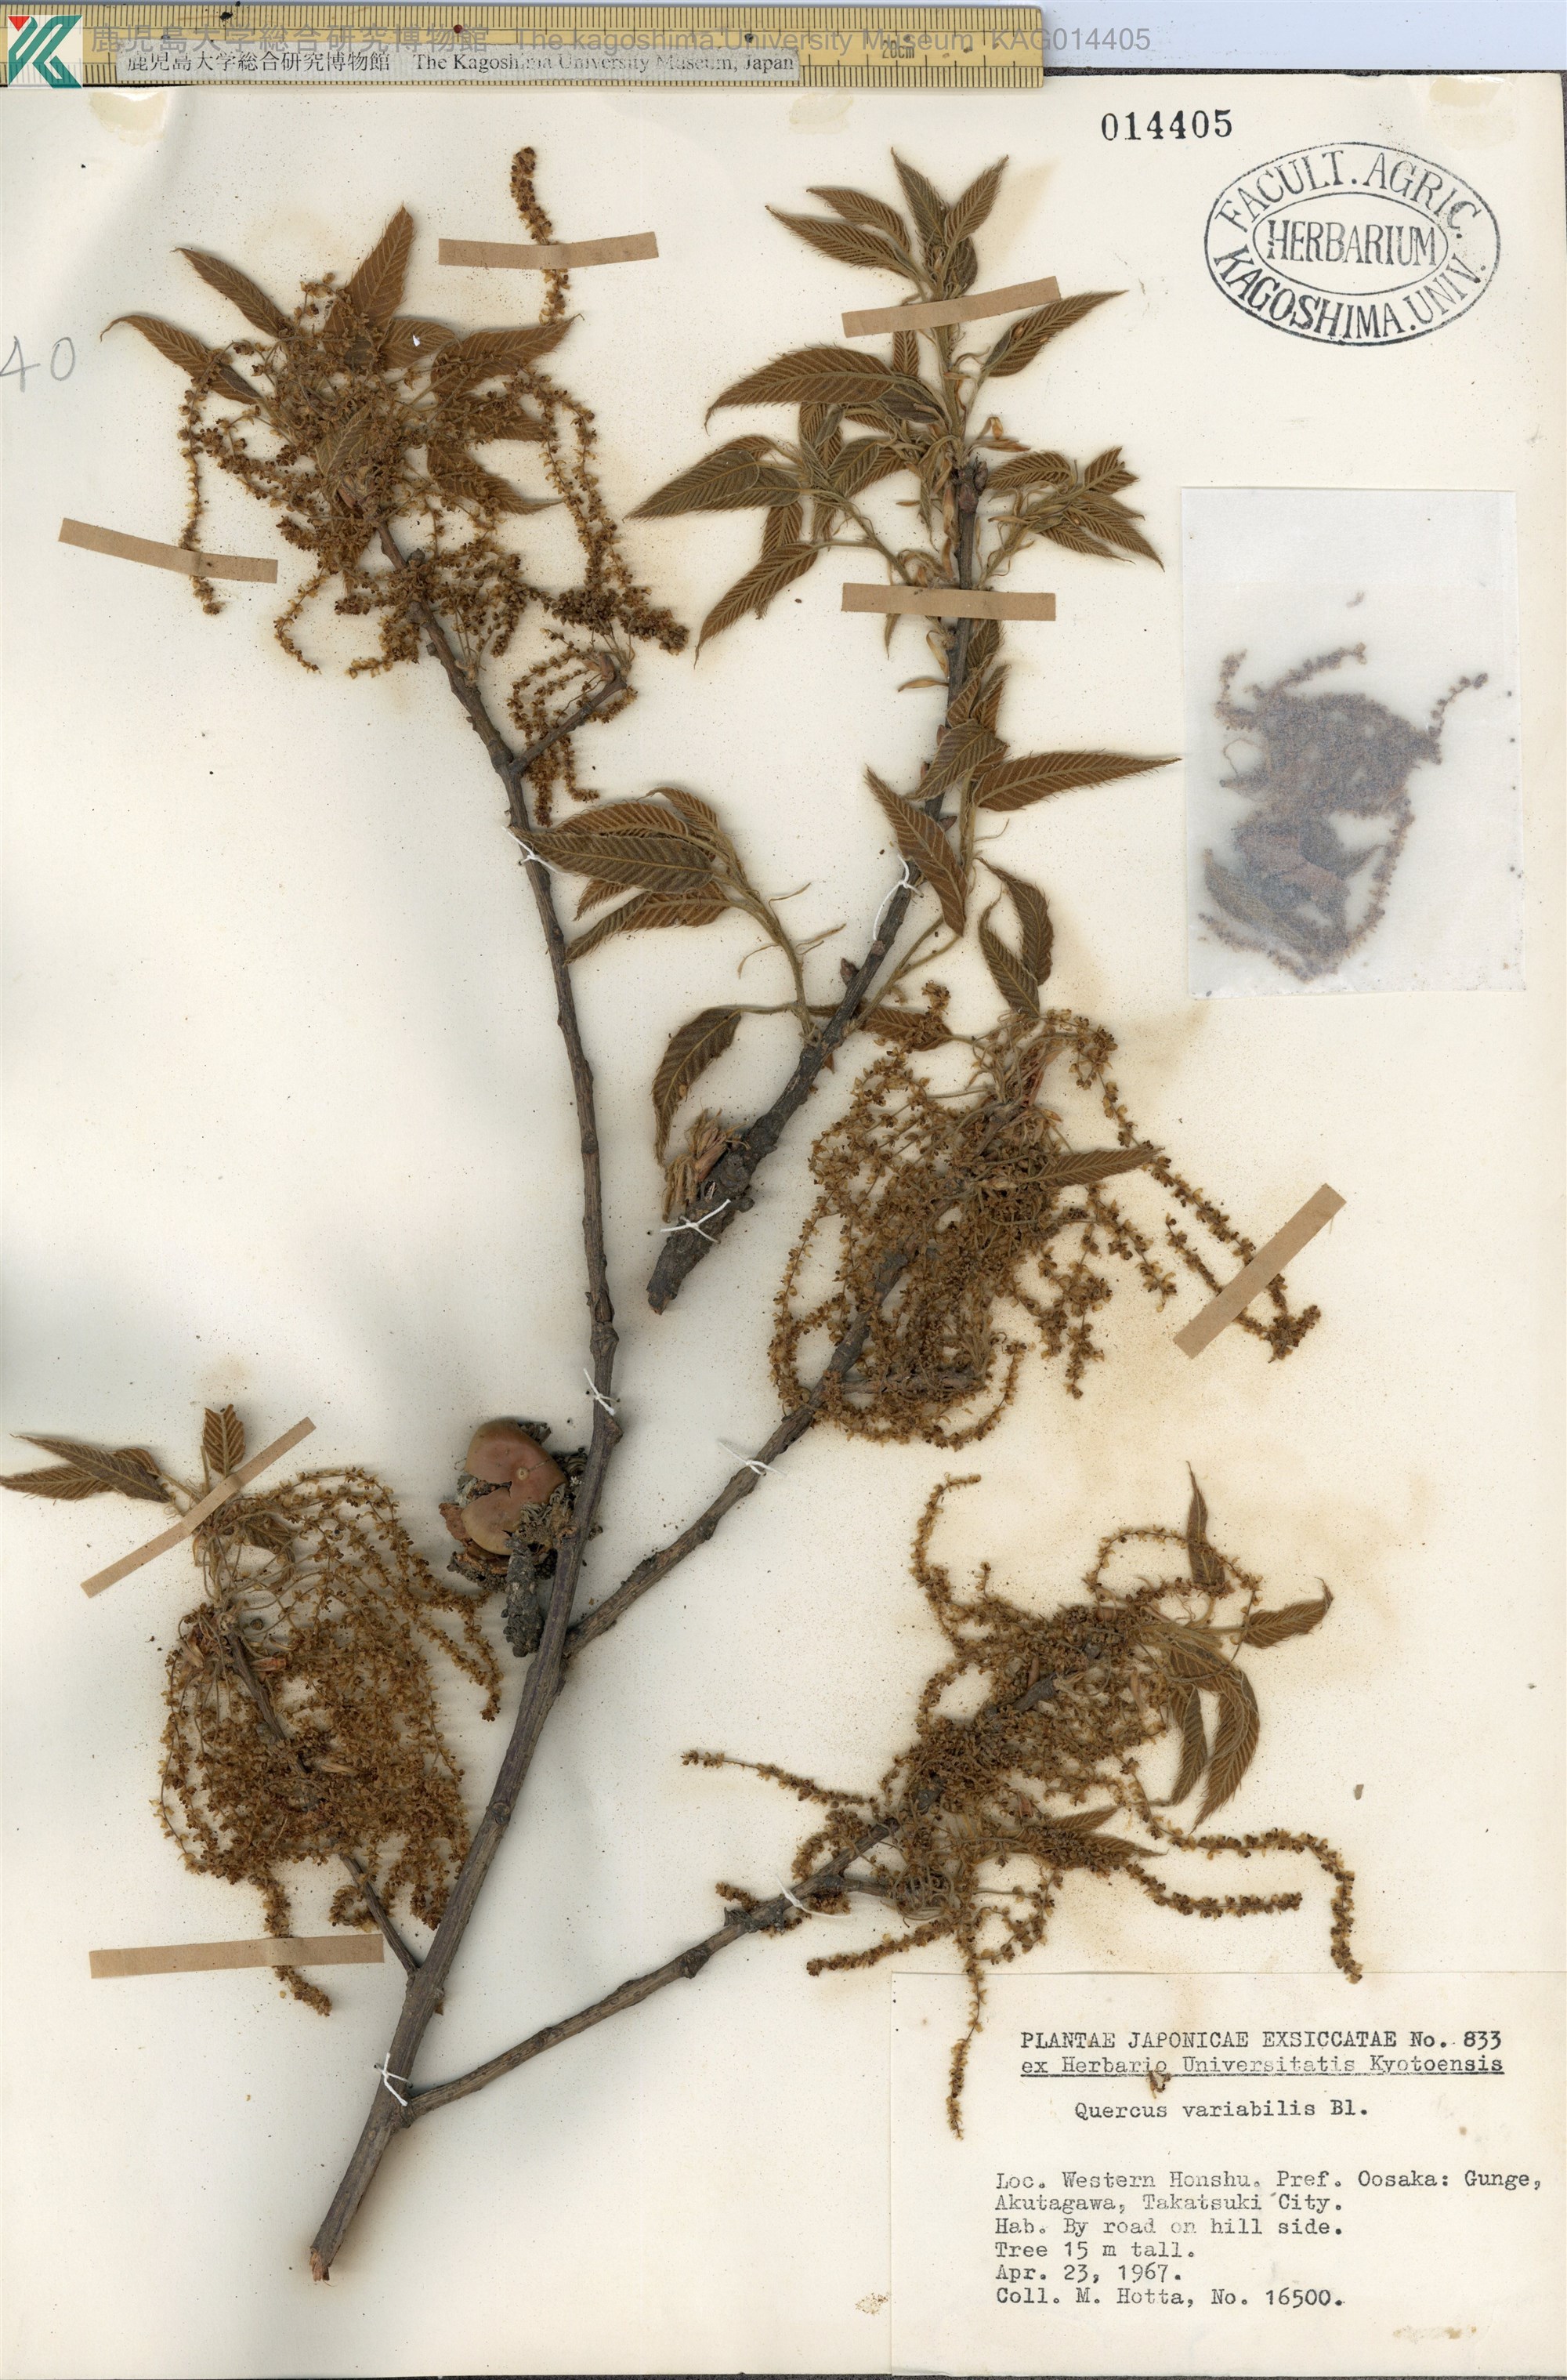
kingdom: Plantae
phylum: Tracheophyta
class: Magnoliopsida
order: Fagales
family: Fagaceae
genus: Quercus
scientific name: Quercus variabilis
